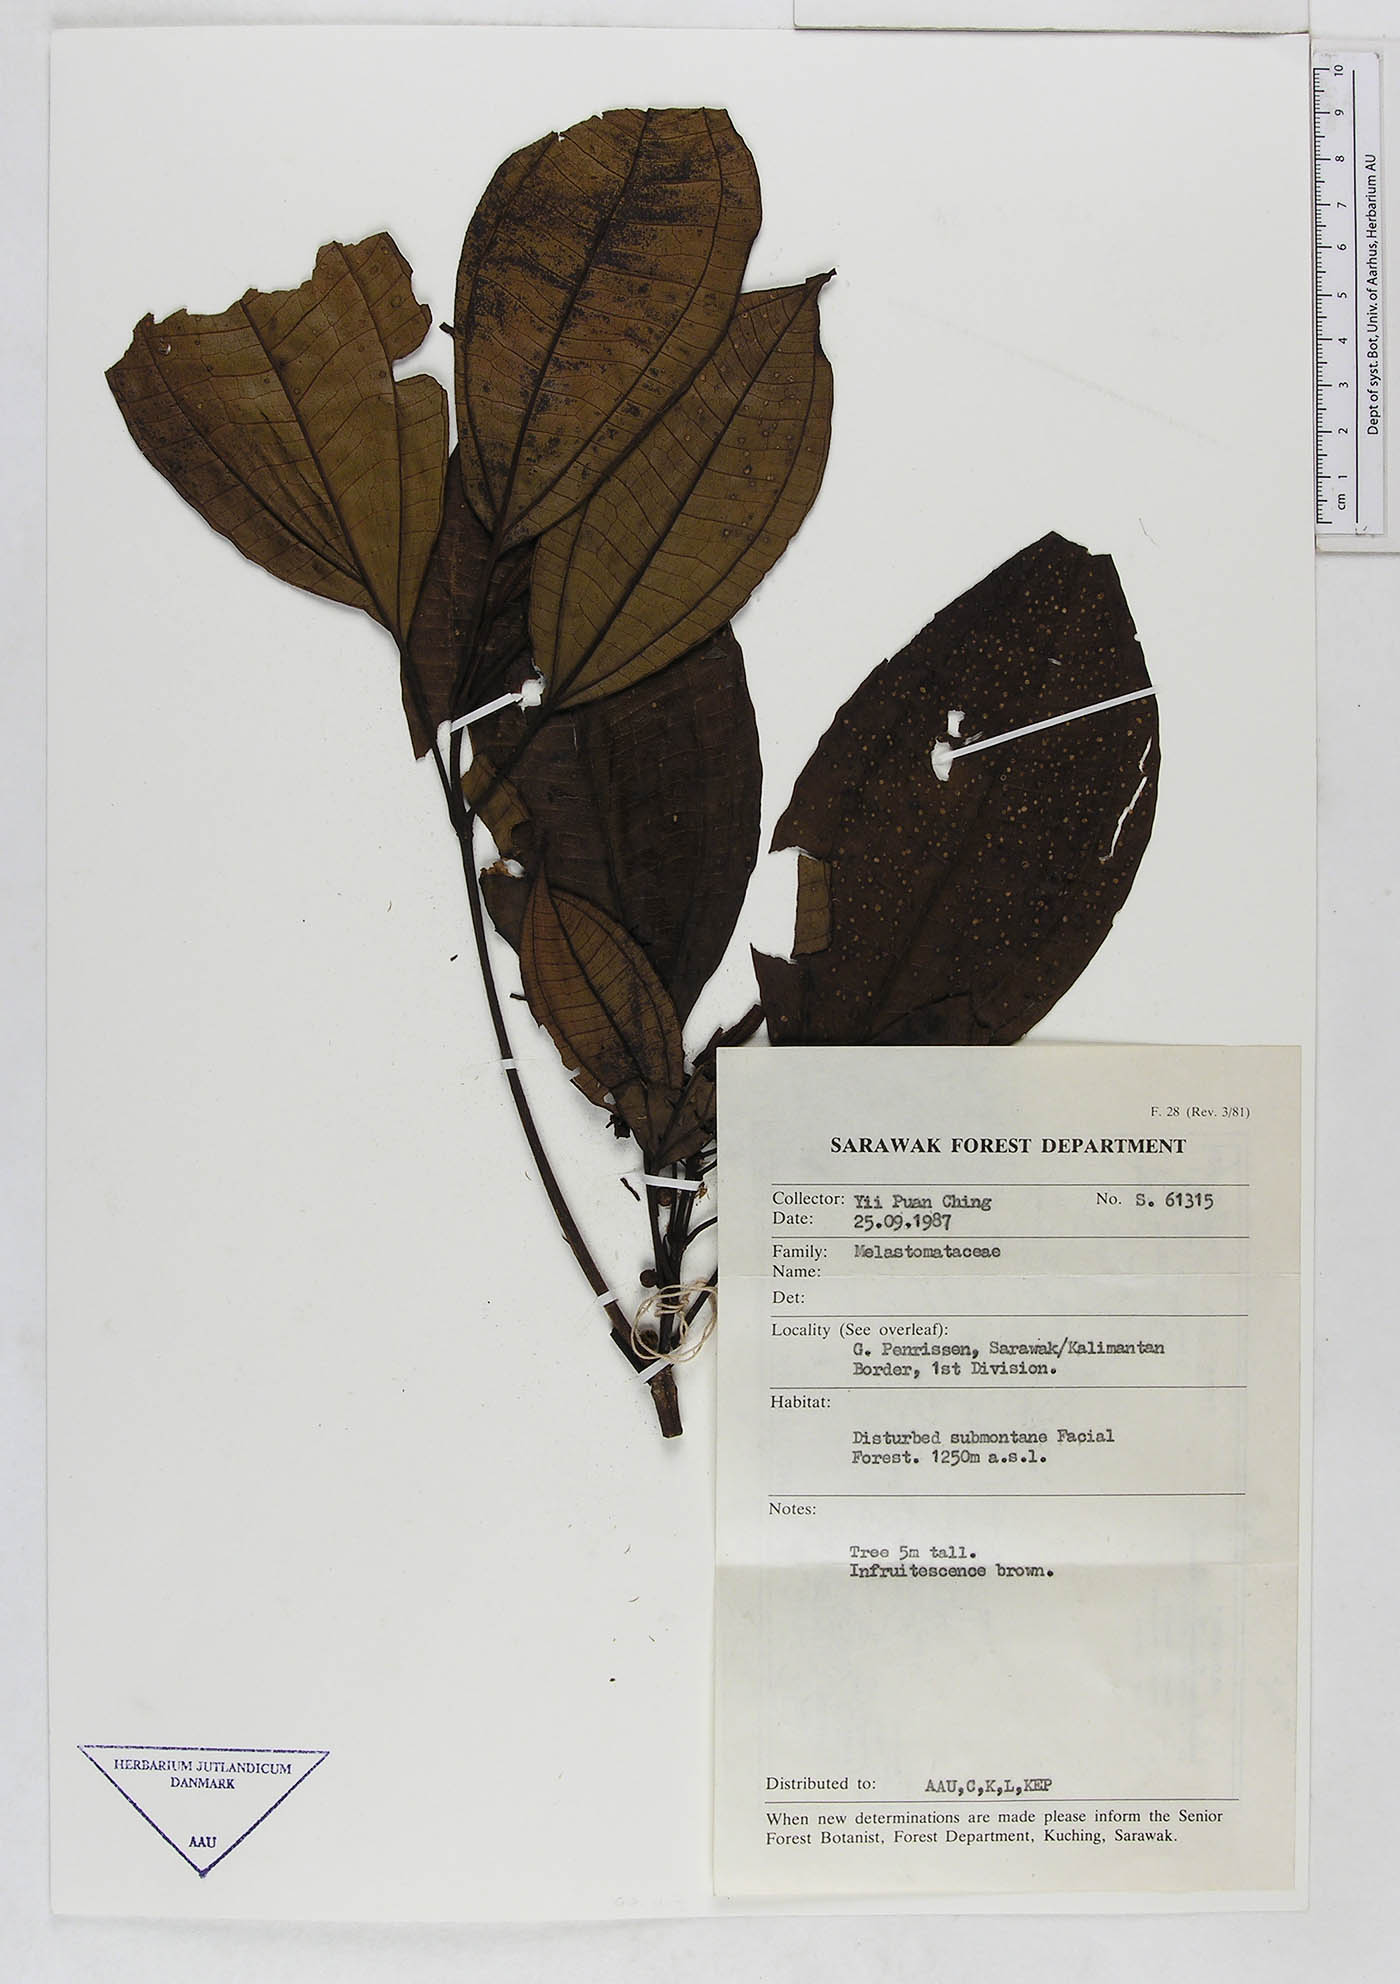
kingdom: Plantae
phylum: Tracheophyta
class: Magnoliopsida
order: Myrtales
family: Melastomataceae
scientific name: Melastomataceae
